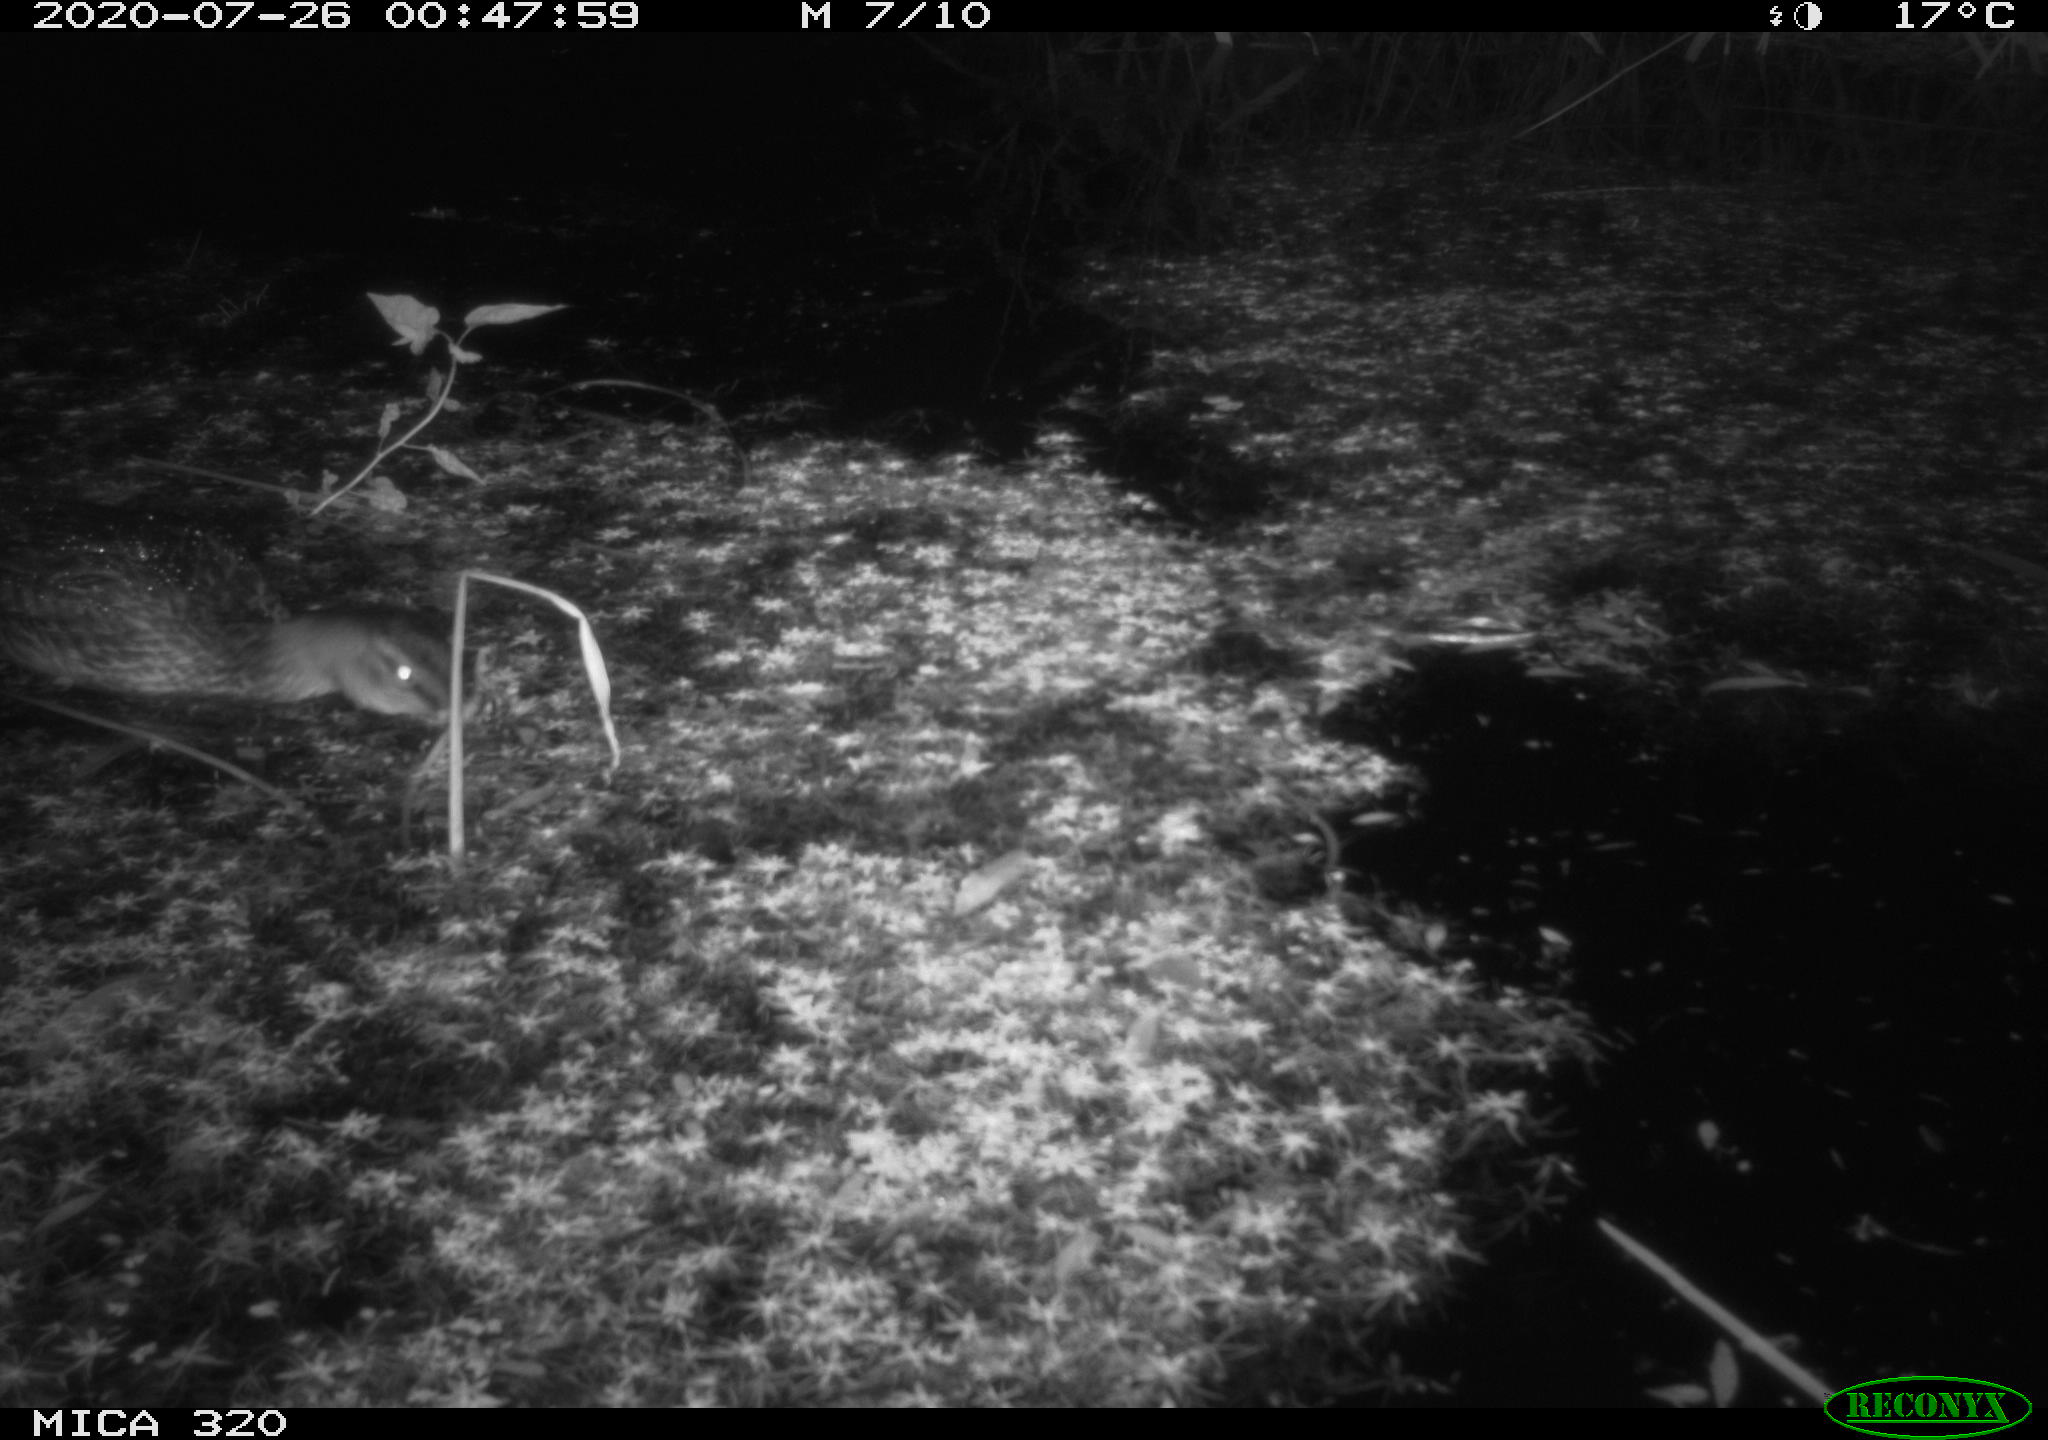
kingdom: Animalia
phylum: Chordata
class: Aves
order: Anseriformes
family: Anatidae
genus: Anas
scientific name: Anas platyrhynchos
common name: Mallard
